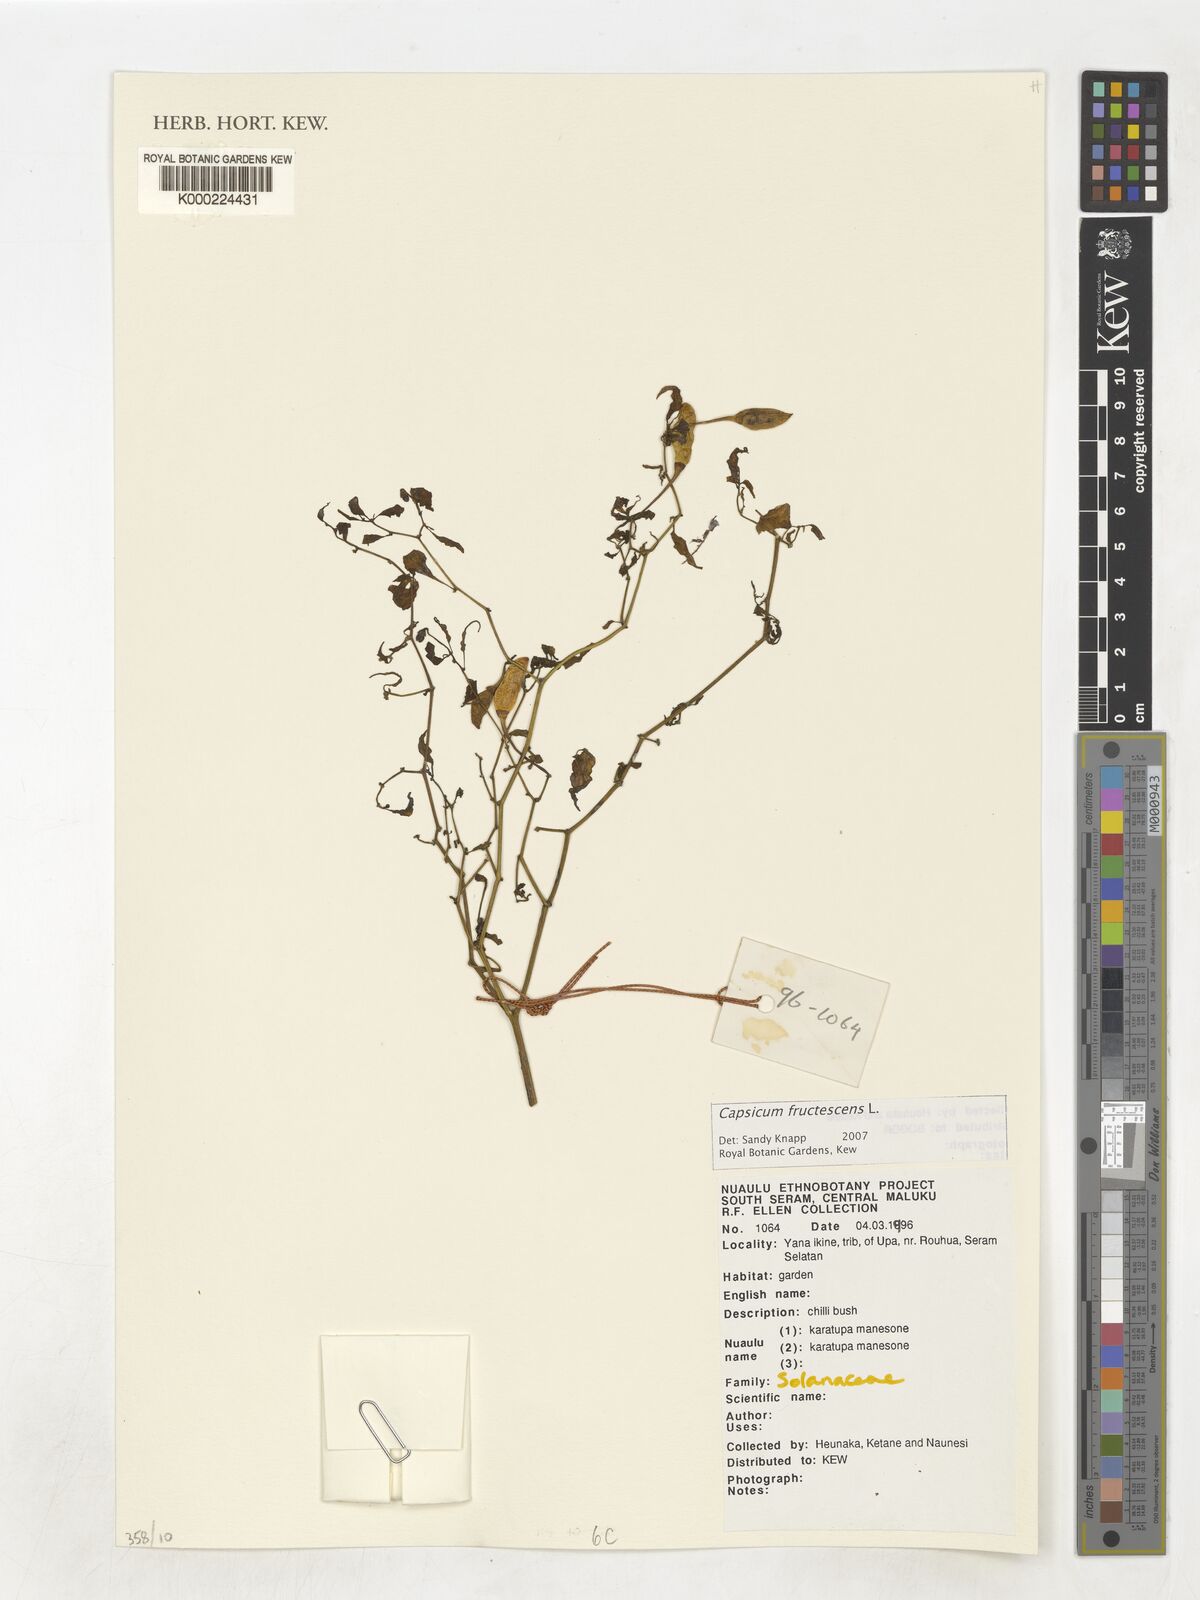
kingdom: Plantae
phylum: Tracheophyta
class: Magnoliopsida
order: Solanales
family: Solanaceae
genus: Capsicum
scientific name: Capsicum frutescens
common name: Bird pepper
